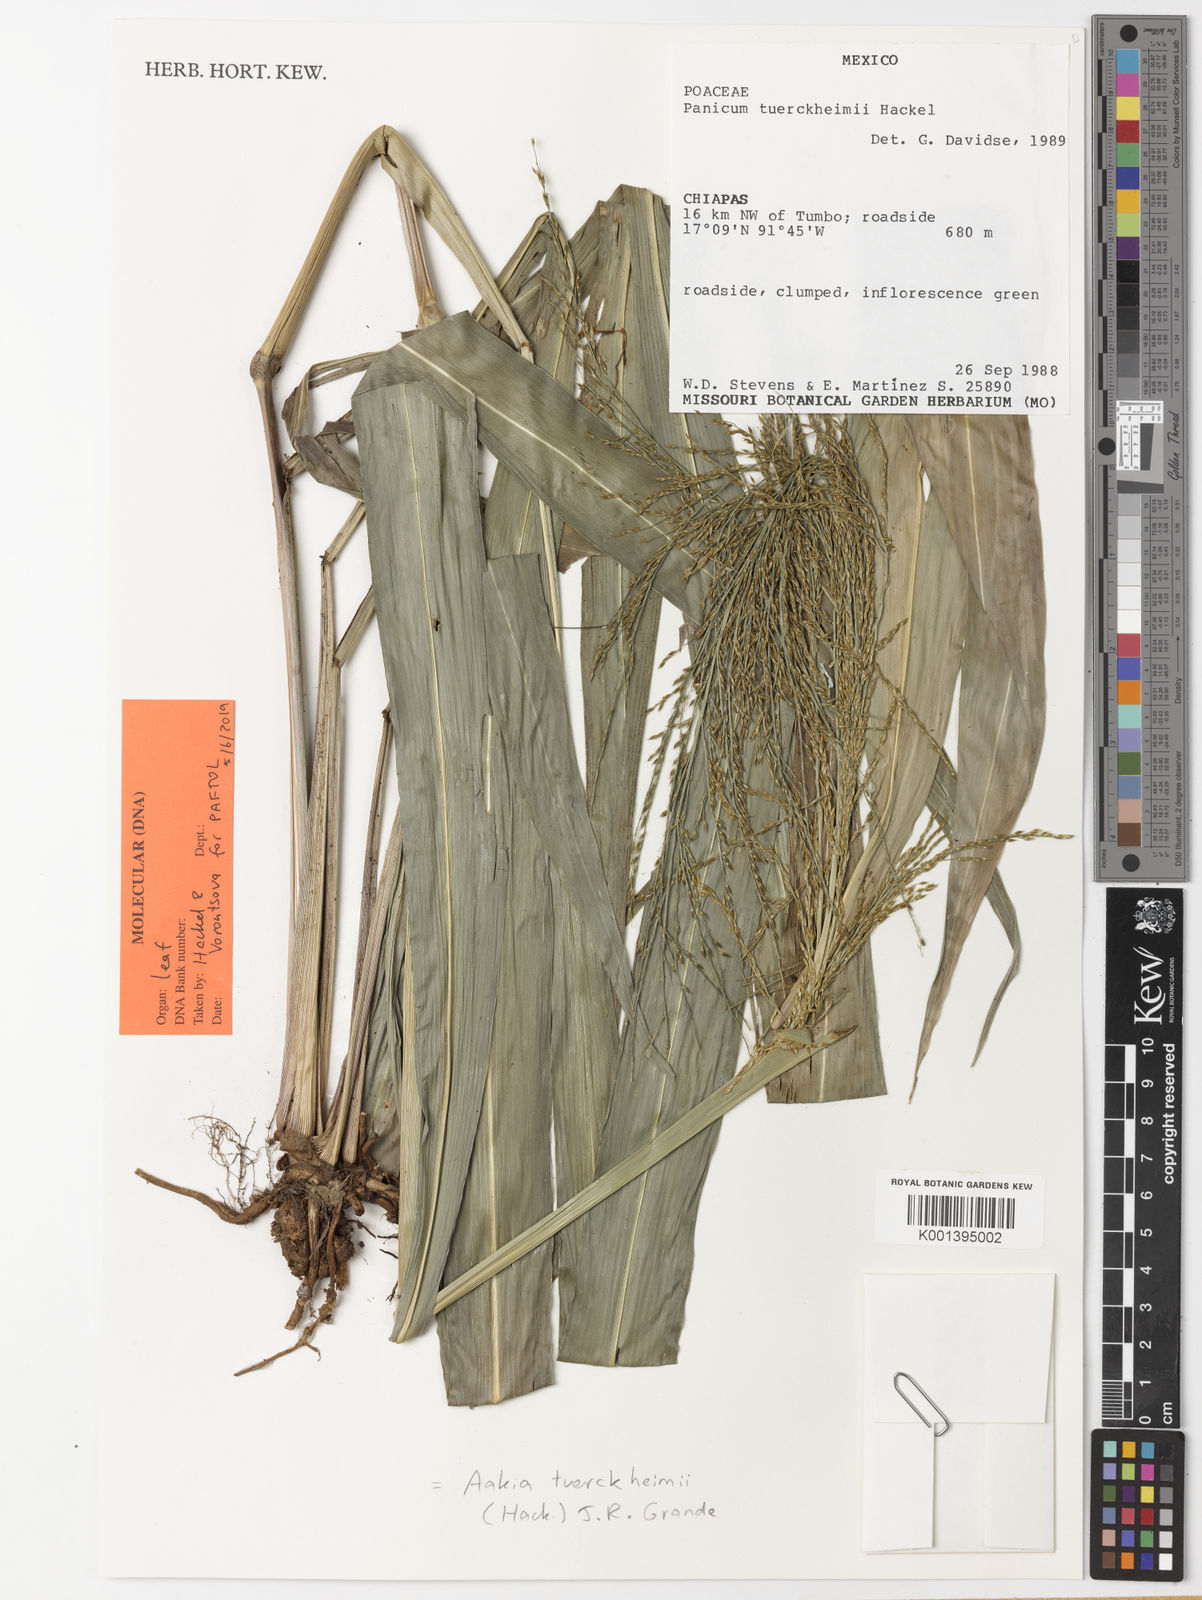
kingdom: Plantae
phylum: Tracheophyta
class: Liliopsida
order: Poales
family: Poaceae
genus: Aakia
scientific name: Aakia tuerckheimii
